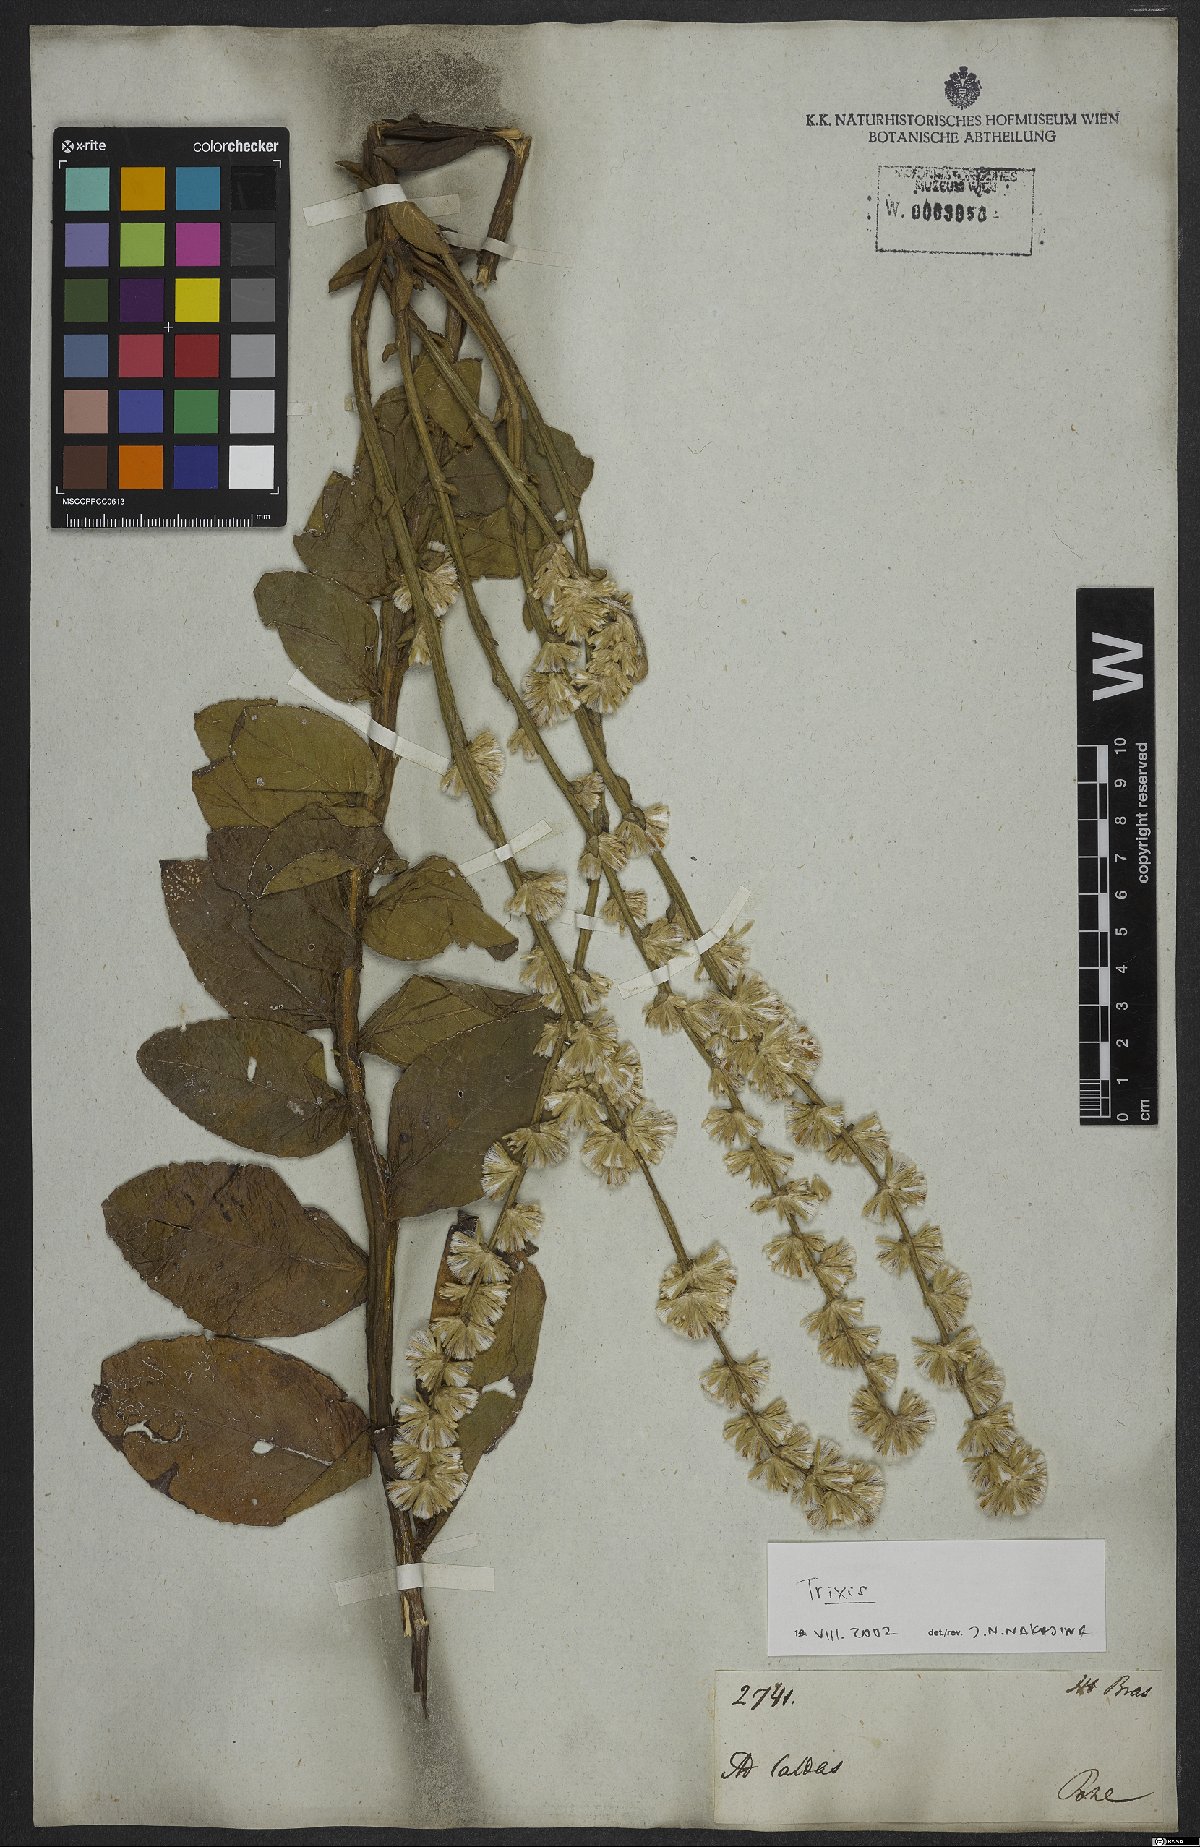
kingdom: Plantae
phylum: Tracheophyta
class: Magnoliopsida
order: Asterales
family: Asteraceae
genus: Trixis
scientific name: Trixis
